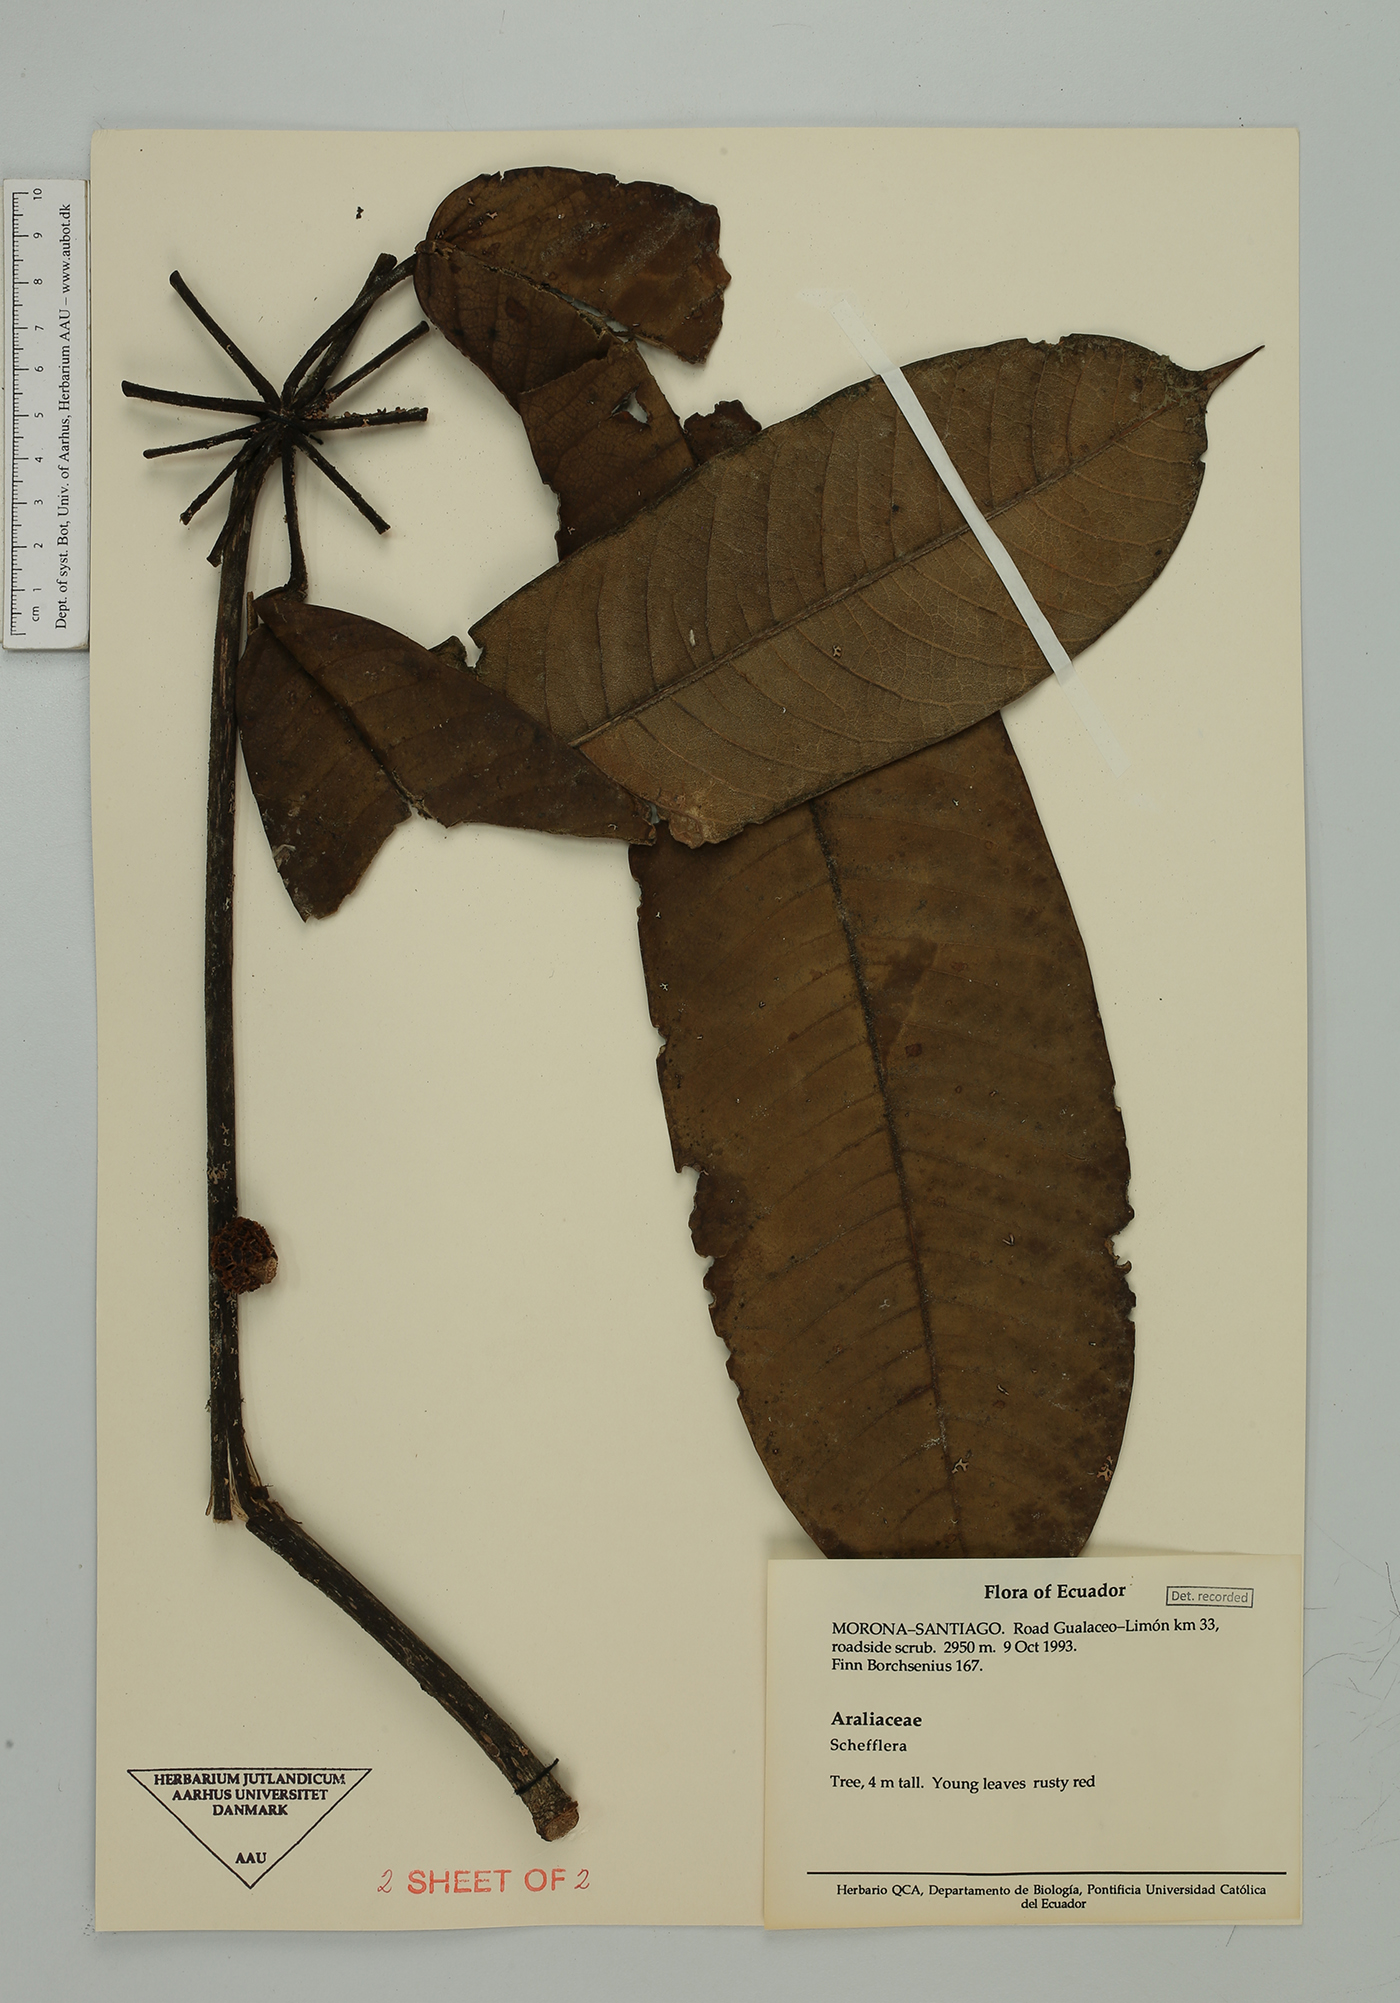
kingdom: Plantae
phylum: Tracheophyta
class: Magnoliopsida
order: Apiales
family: Araliaceae
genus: Sciodaphyllum
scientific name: Sciodaphyllum guanayense
